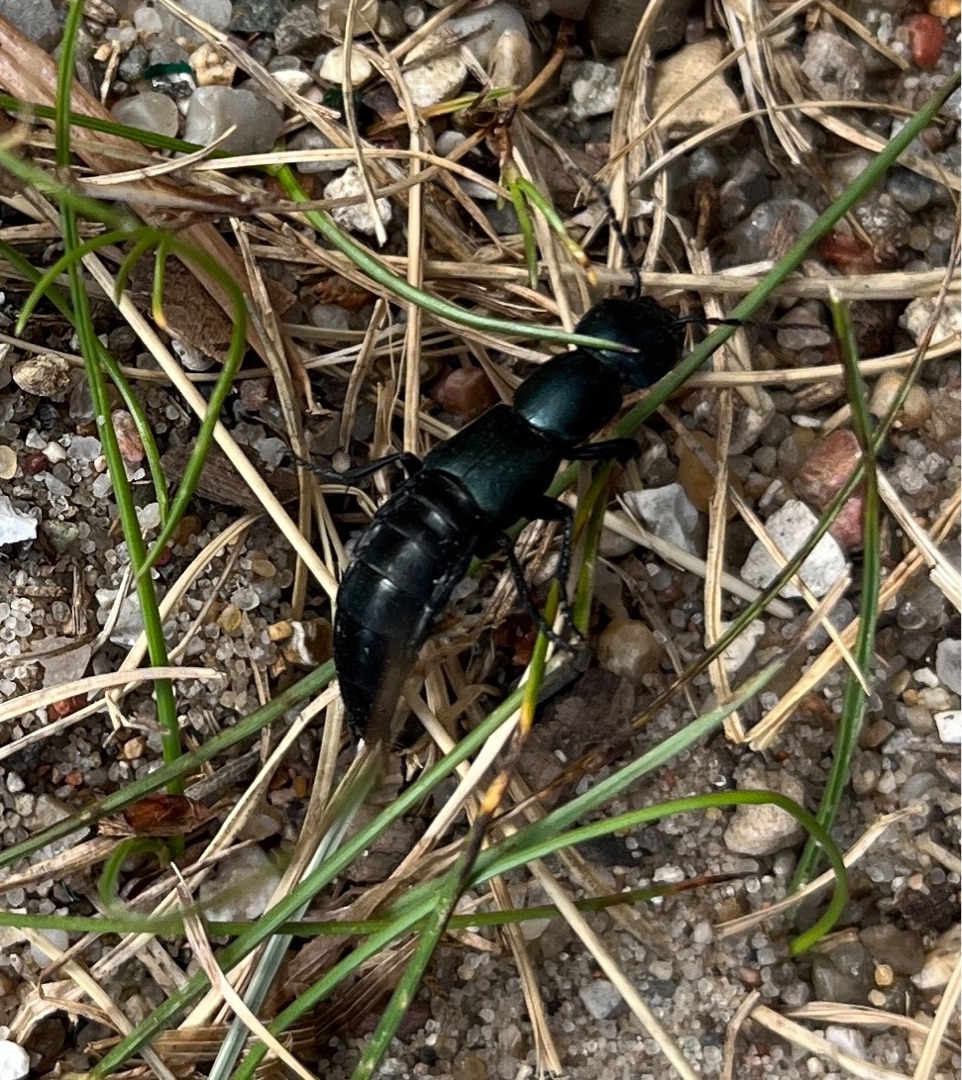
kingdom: Animalia
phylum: Arthropoda
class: Insecta
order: Coleoptera
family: Staphylinidae
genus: Ocypus
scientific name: Ocypus ophthalmicus
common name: Blå kæmperovbille
